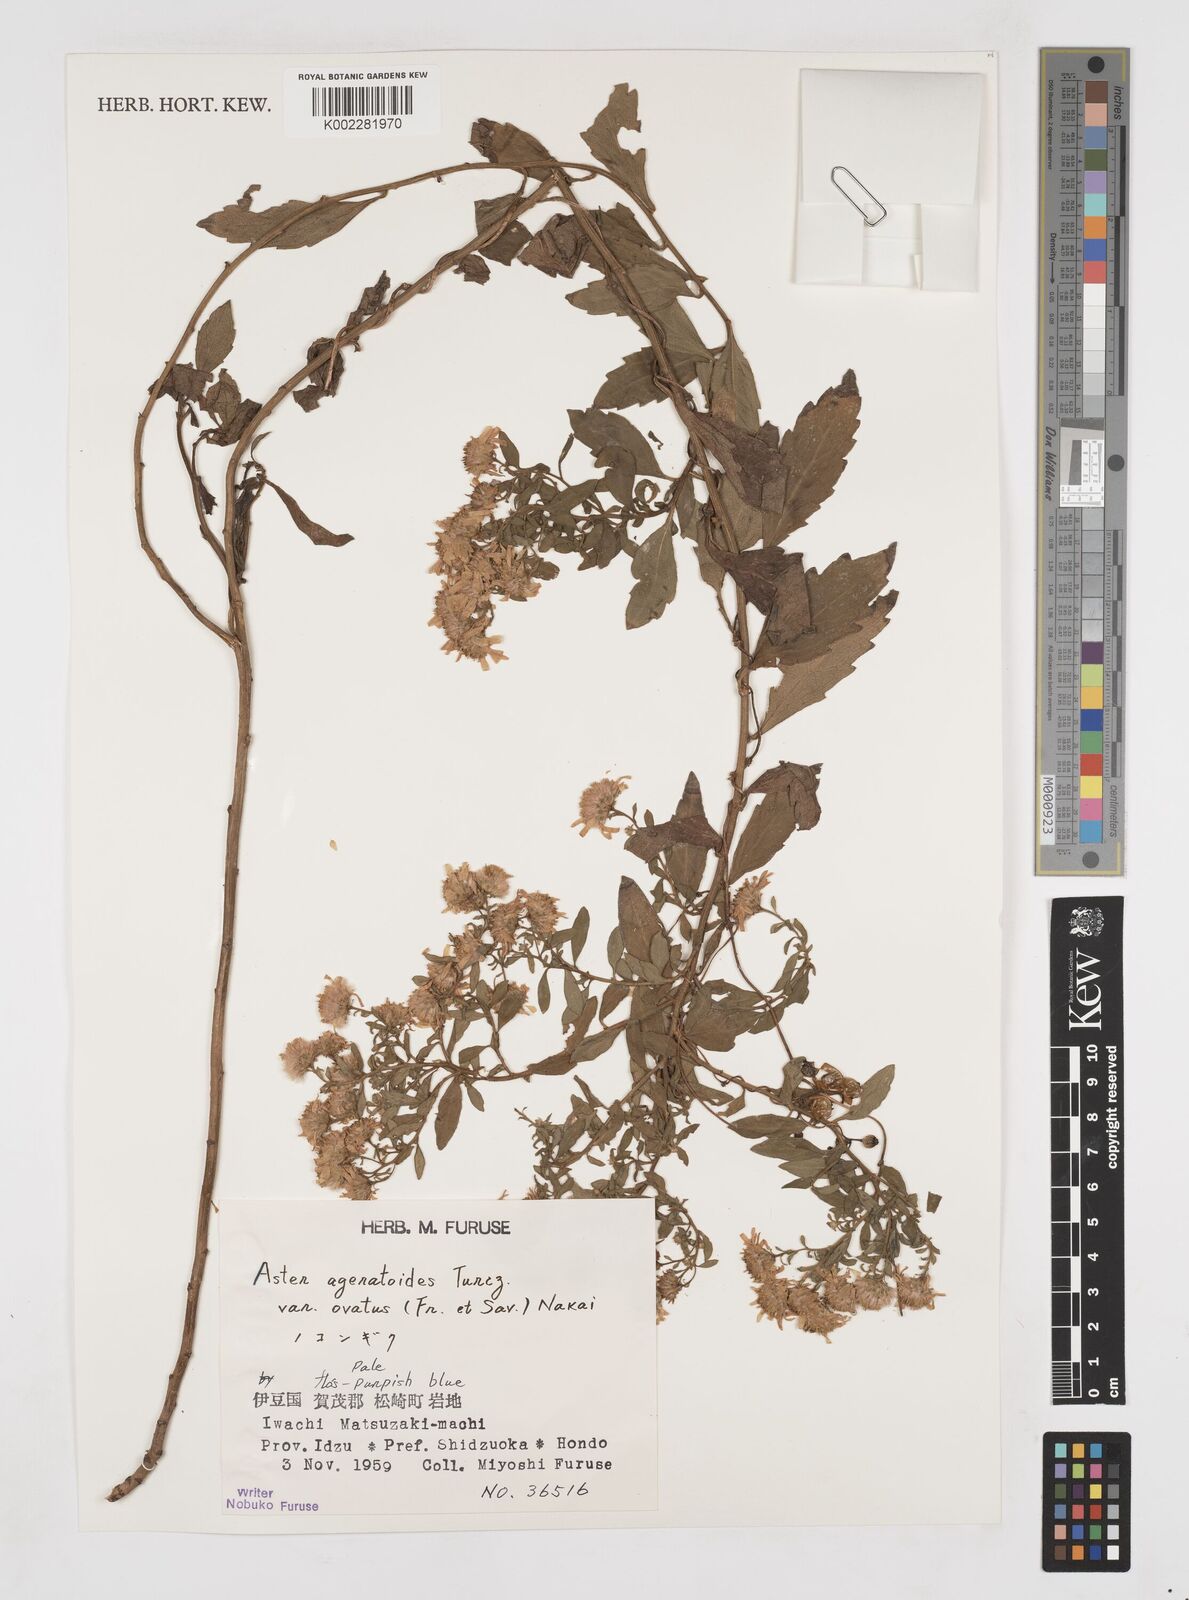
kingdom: Plantae
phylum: Tracheophyta
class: Magnoliopsida
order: Asterales
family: Asteraceae
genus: Aster
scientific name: Aster trinervius
